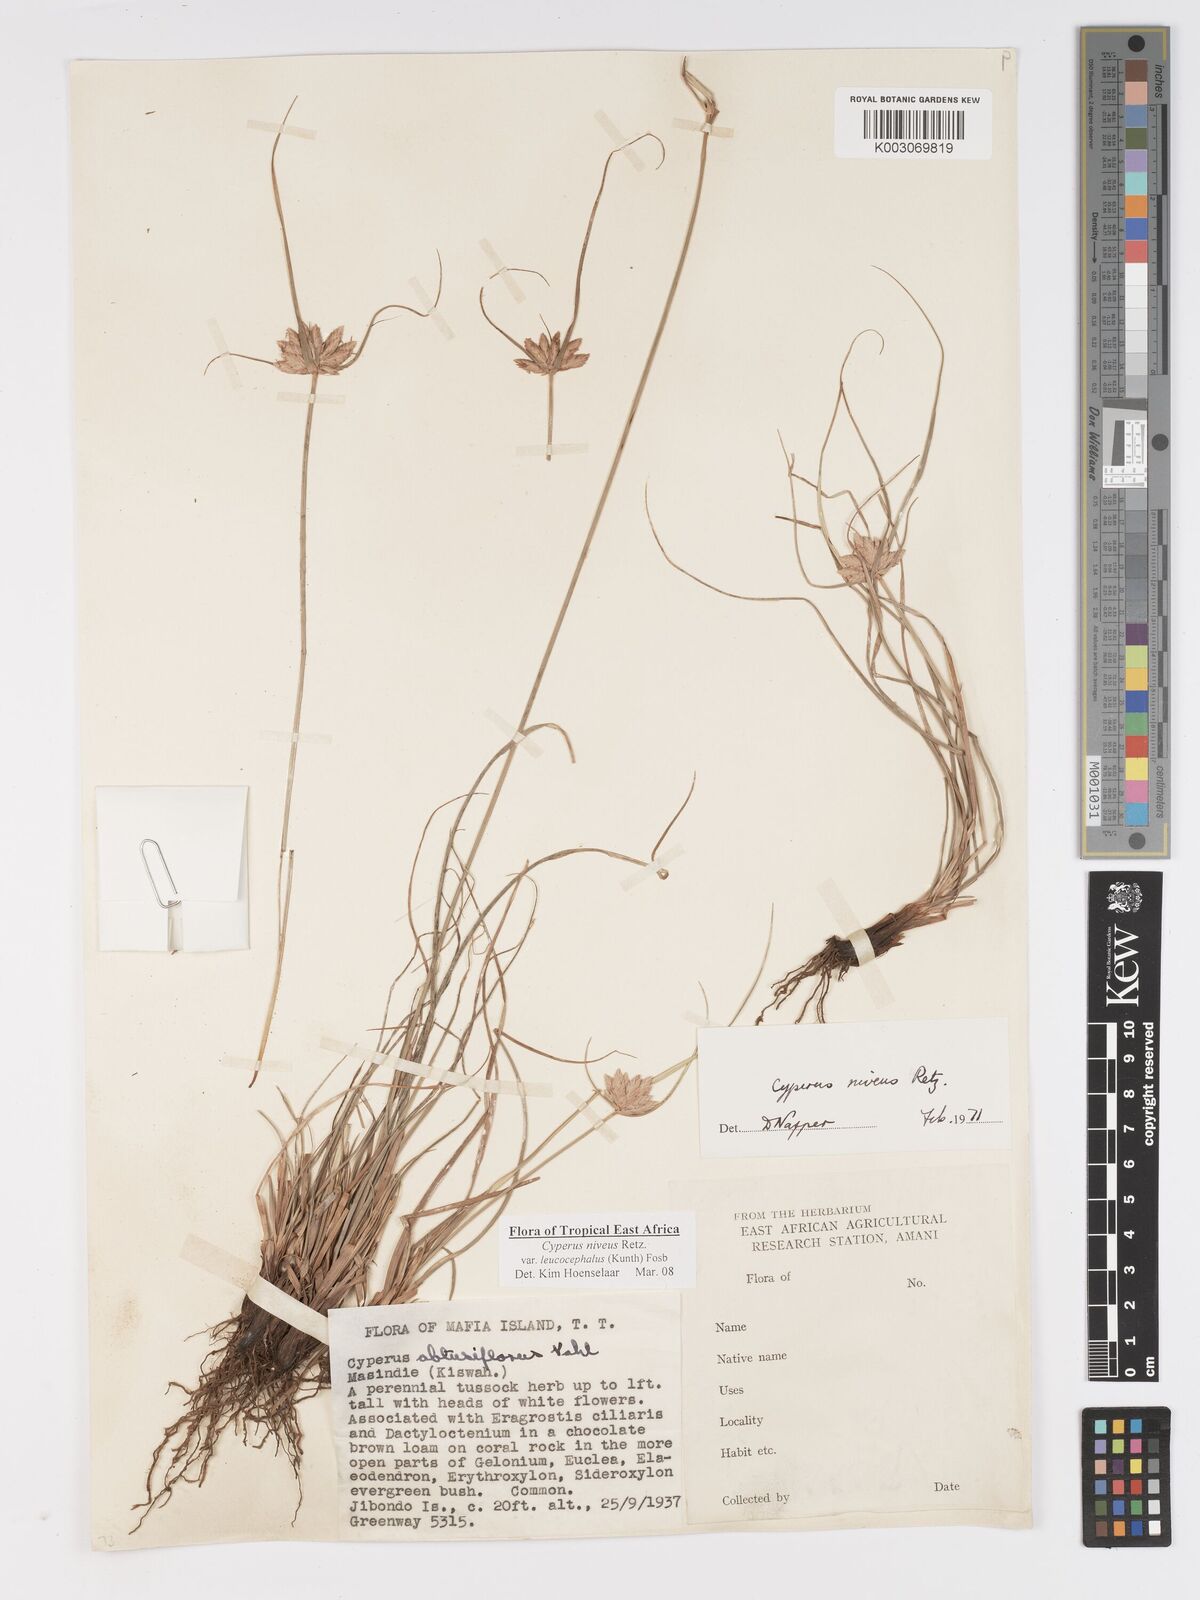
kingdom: Plantae
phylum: Tracheophyta
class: Liliopsida
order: Poales
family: Cyperaceae
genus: Cyperus
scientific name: Cyperus niveus
